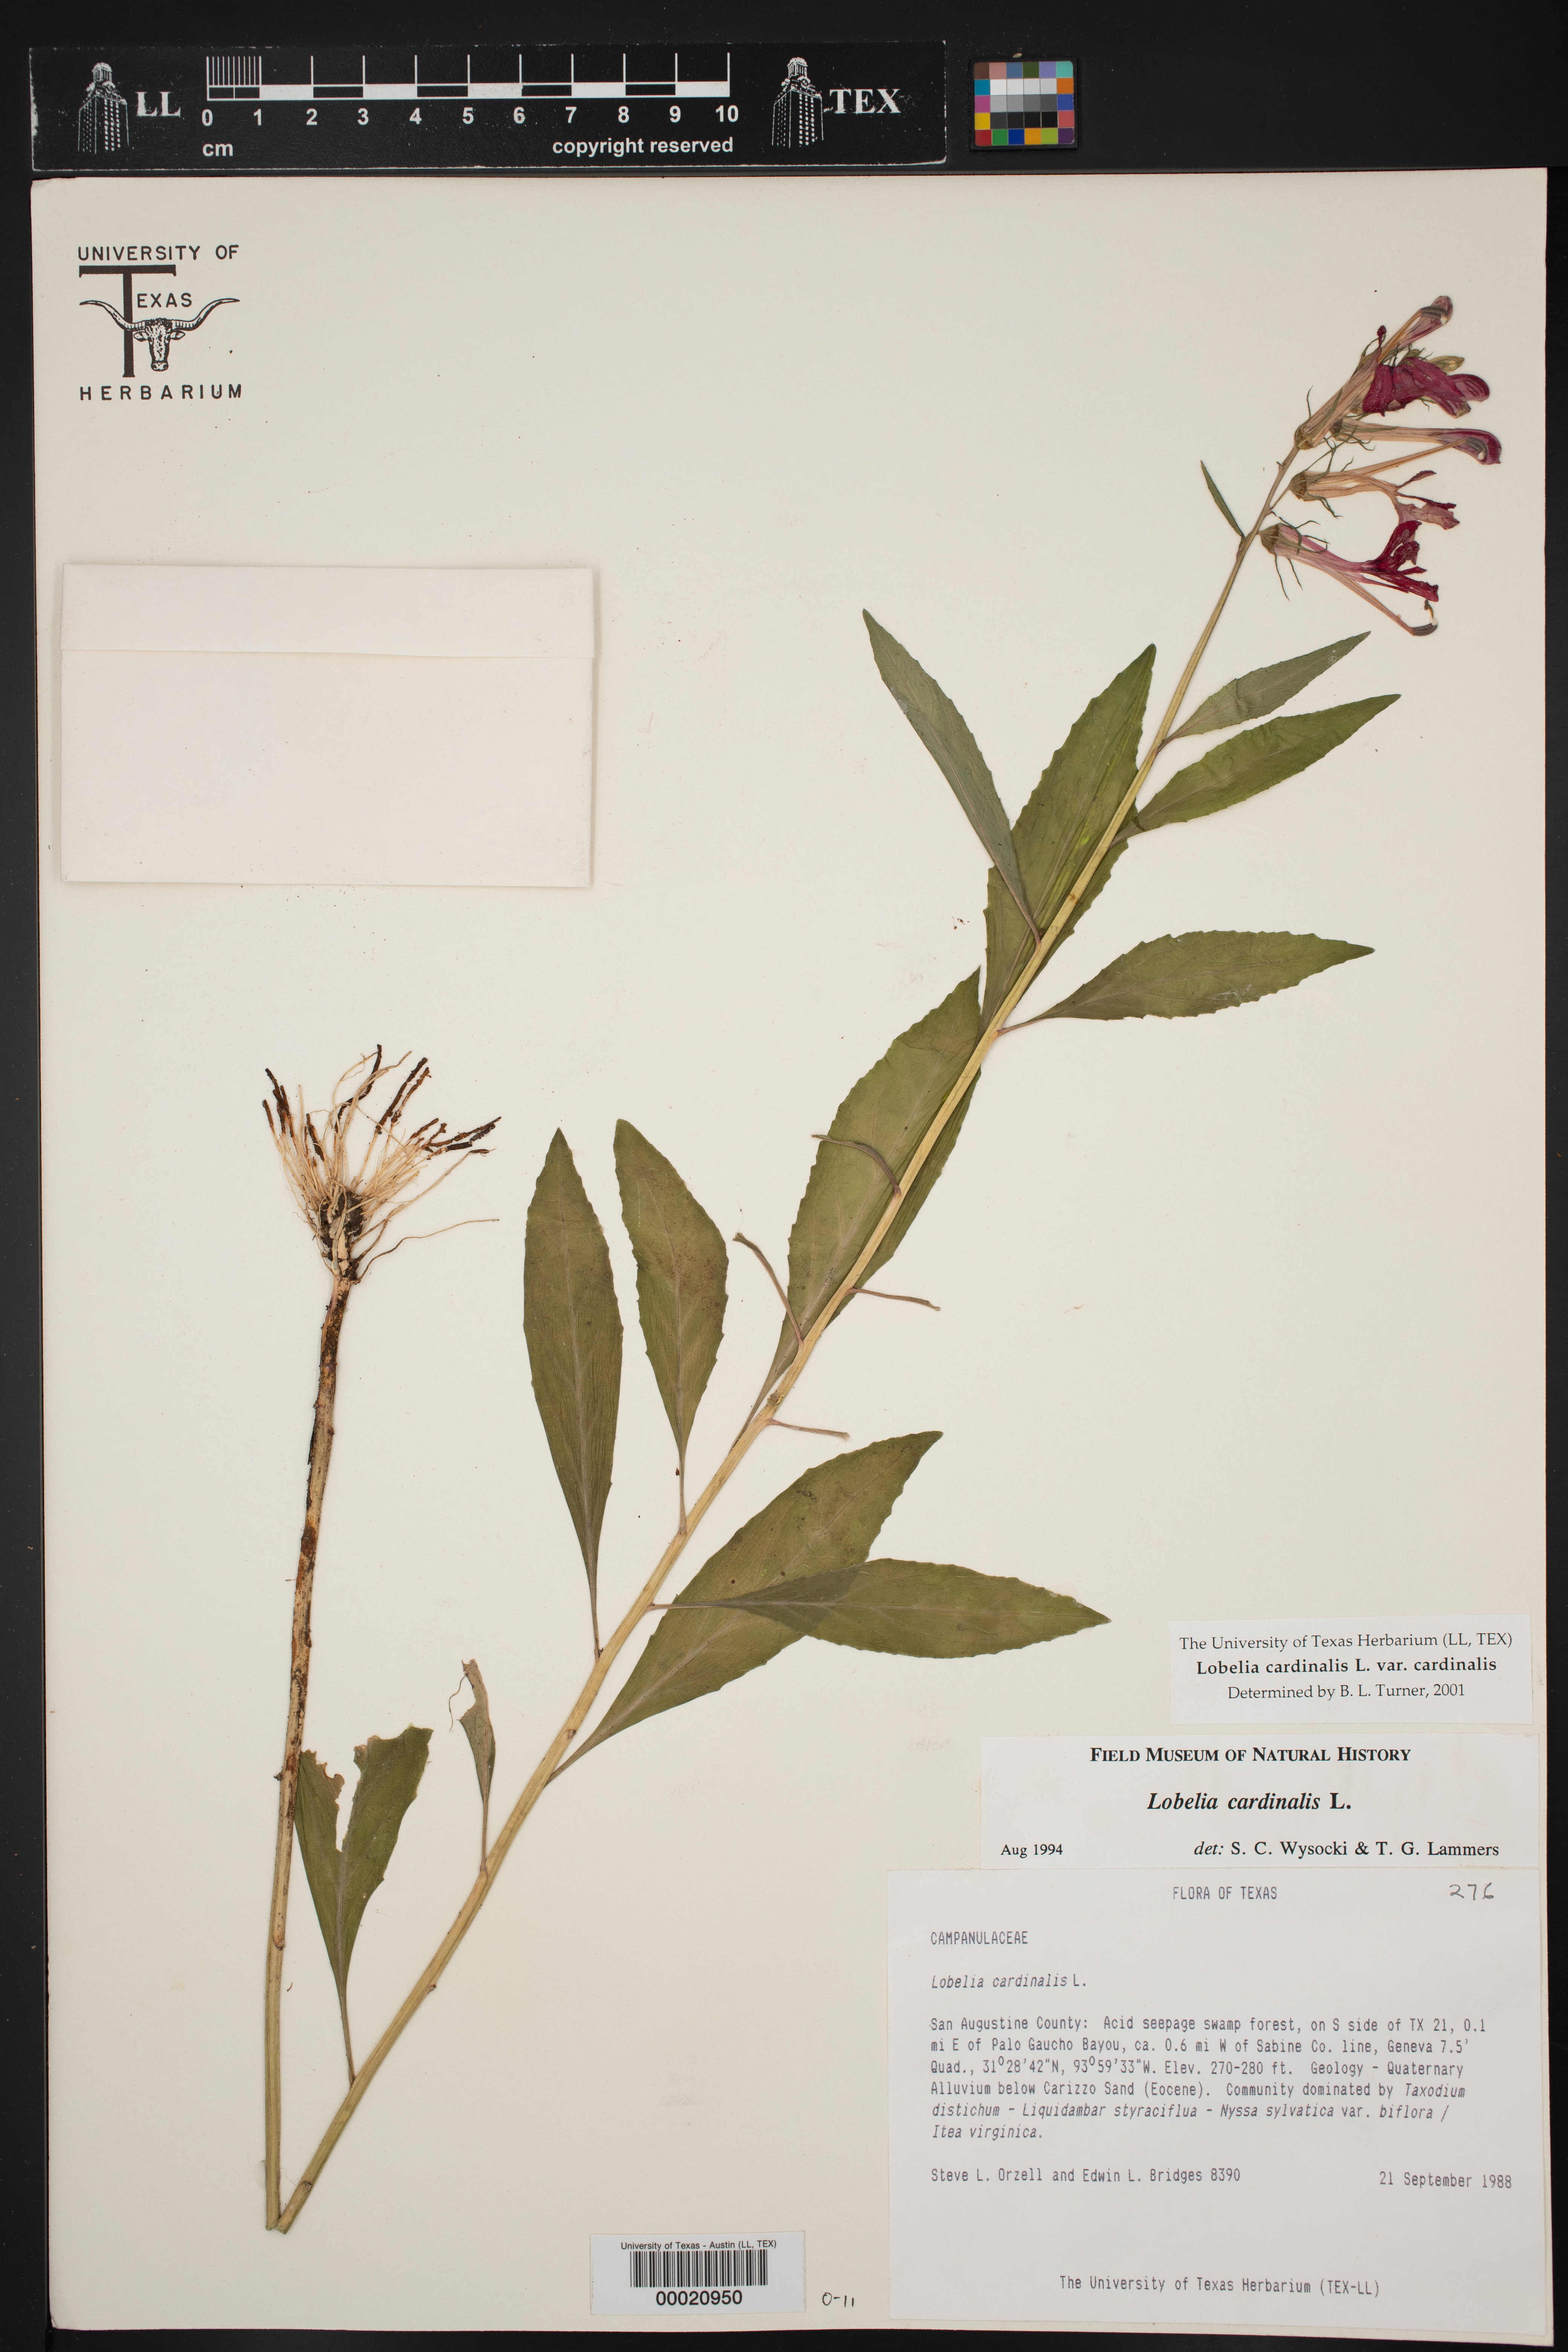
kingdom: Plantae
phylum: Tracheophyta
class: Magnoliopsida
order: Asterales
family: Campanulaceae
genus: Lobelia
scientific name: Lobelia cardinalis
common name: Cardinal flower
